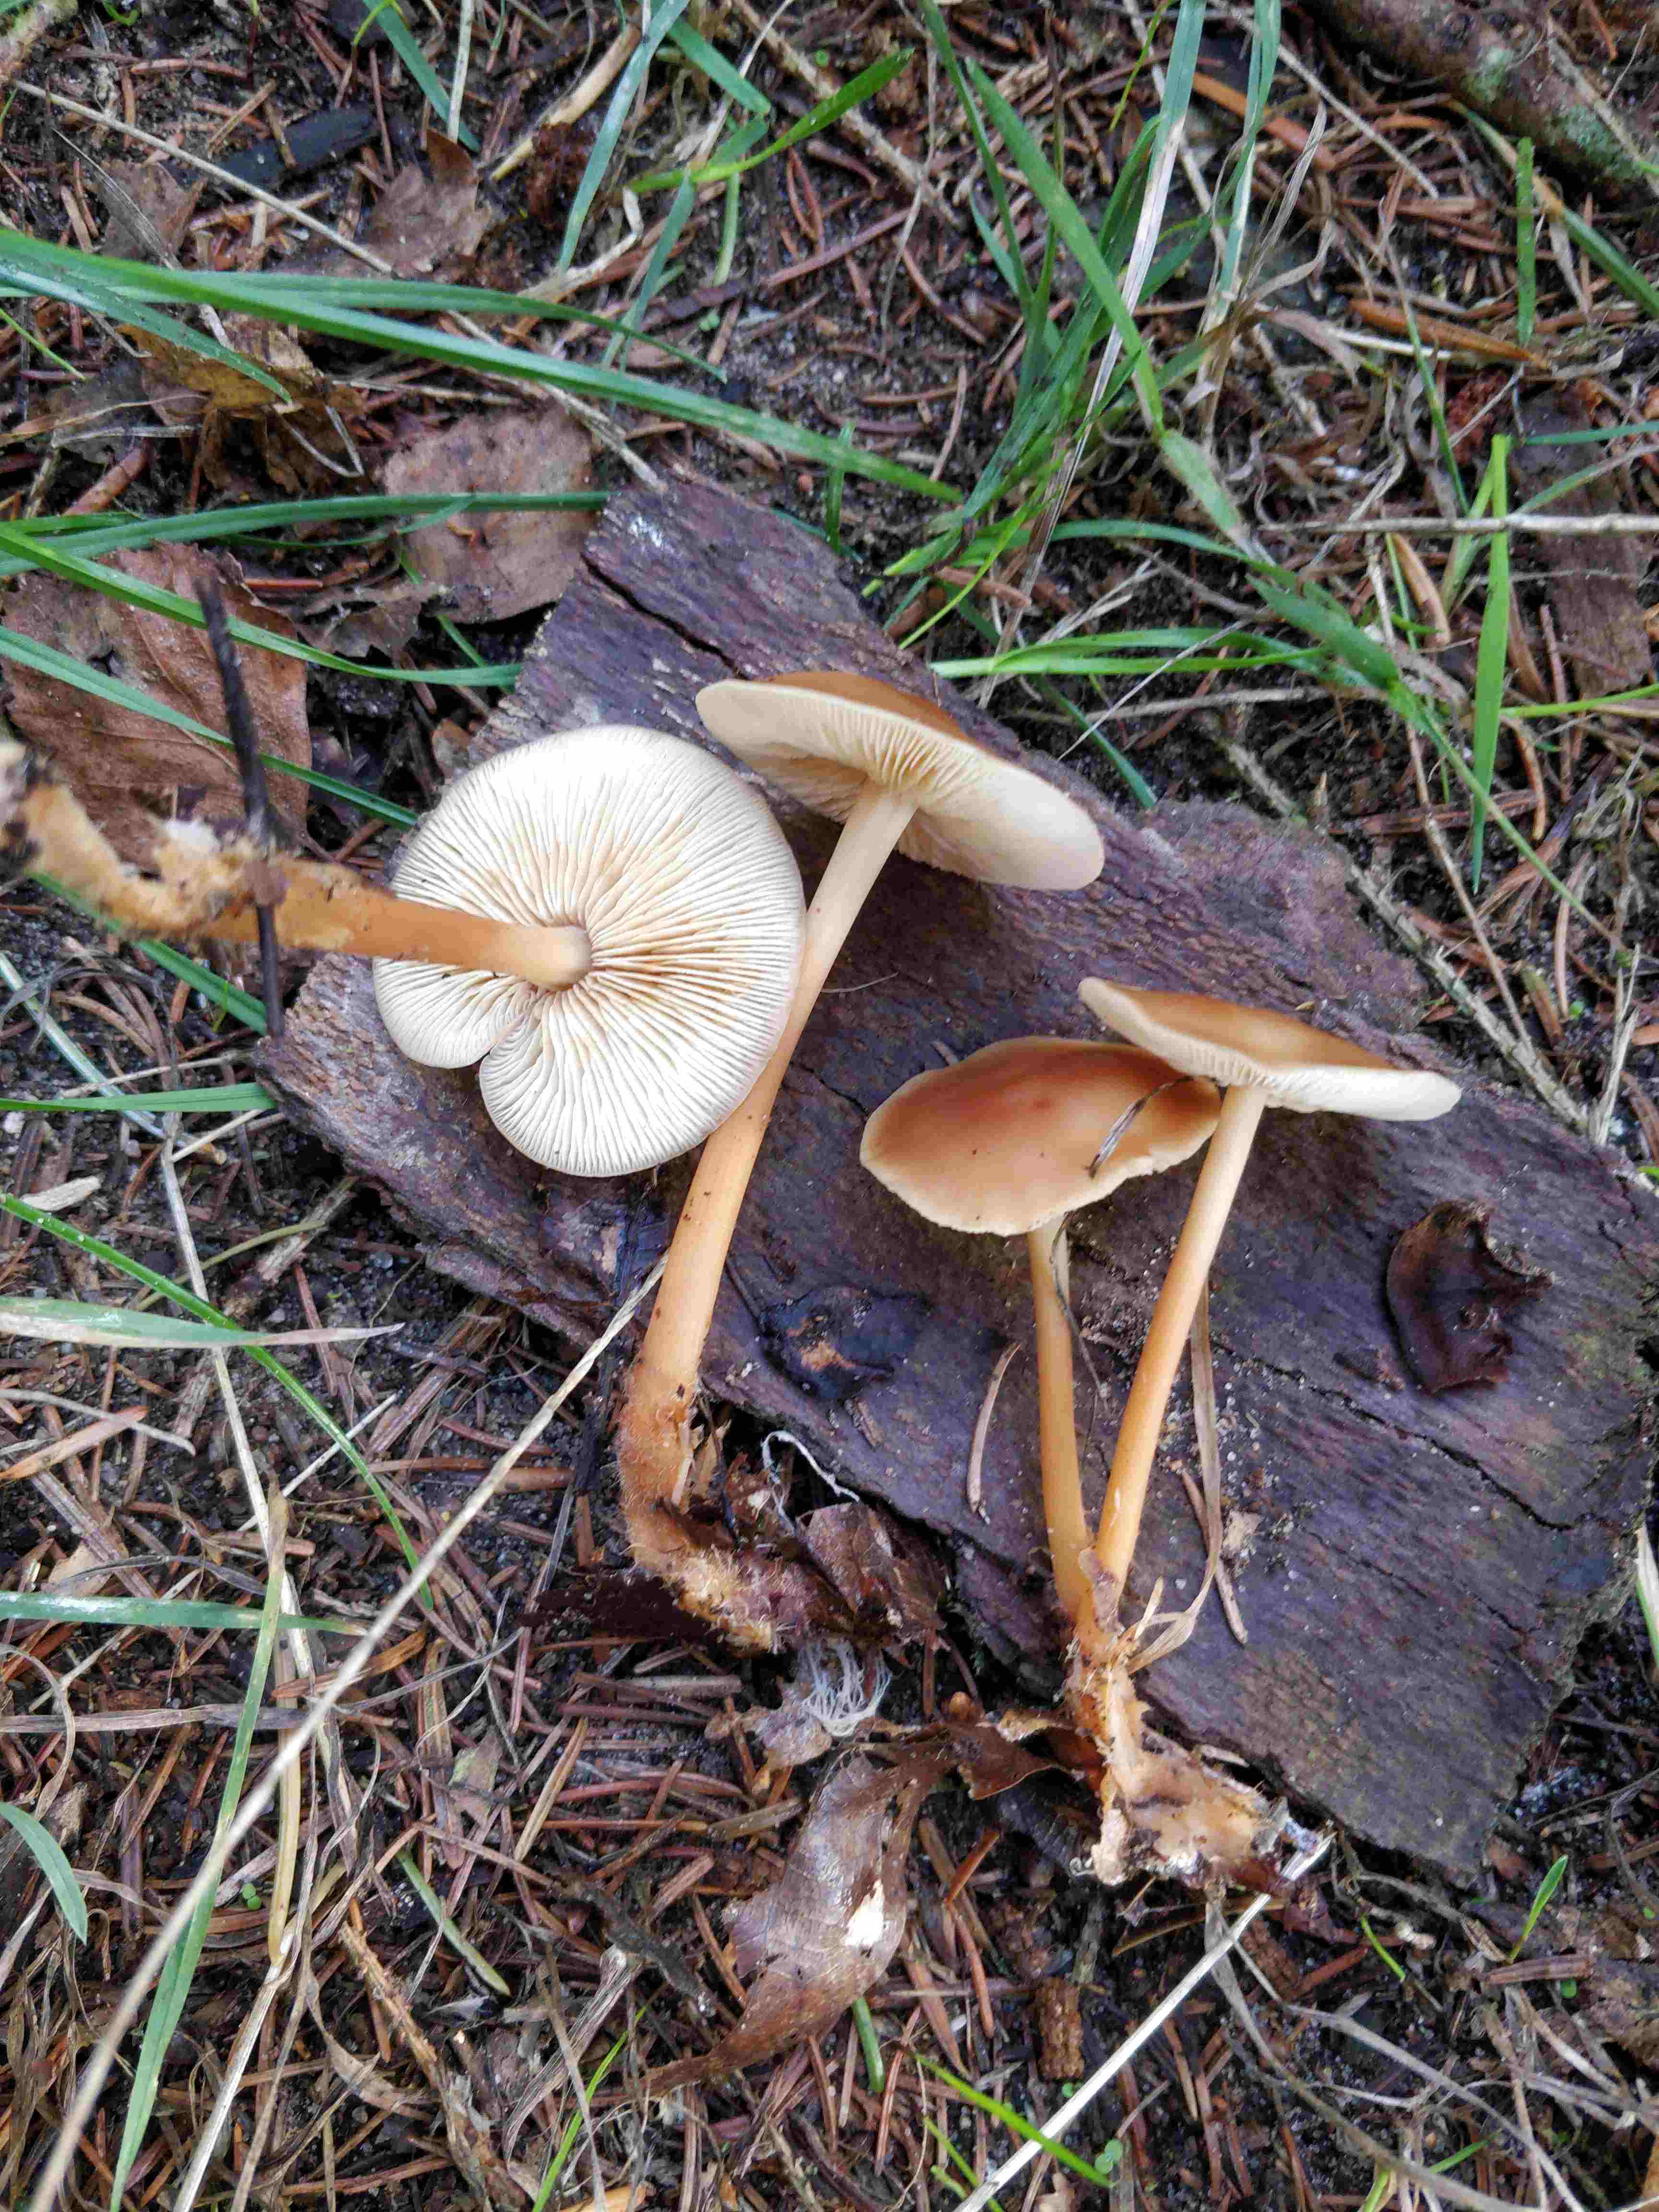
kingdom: Fungi
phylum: Basidiomycota
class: Agaricomycetes
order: Agaricales
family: Omphalotaceae
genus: Gymnopus
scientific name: Gymnopus dryophilus
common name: løv-fladhat
